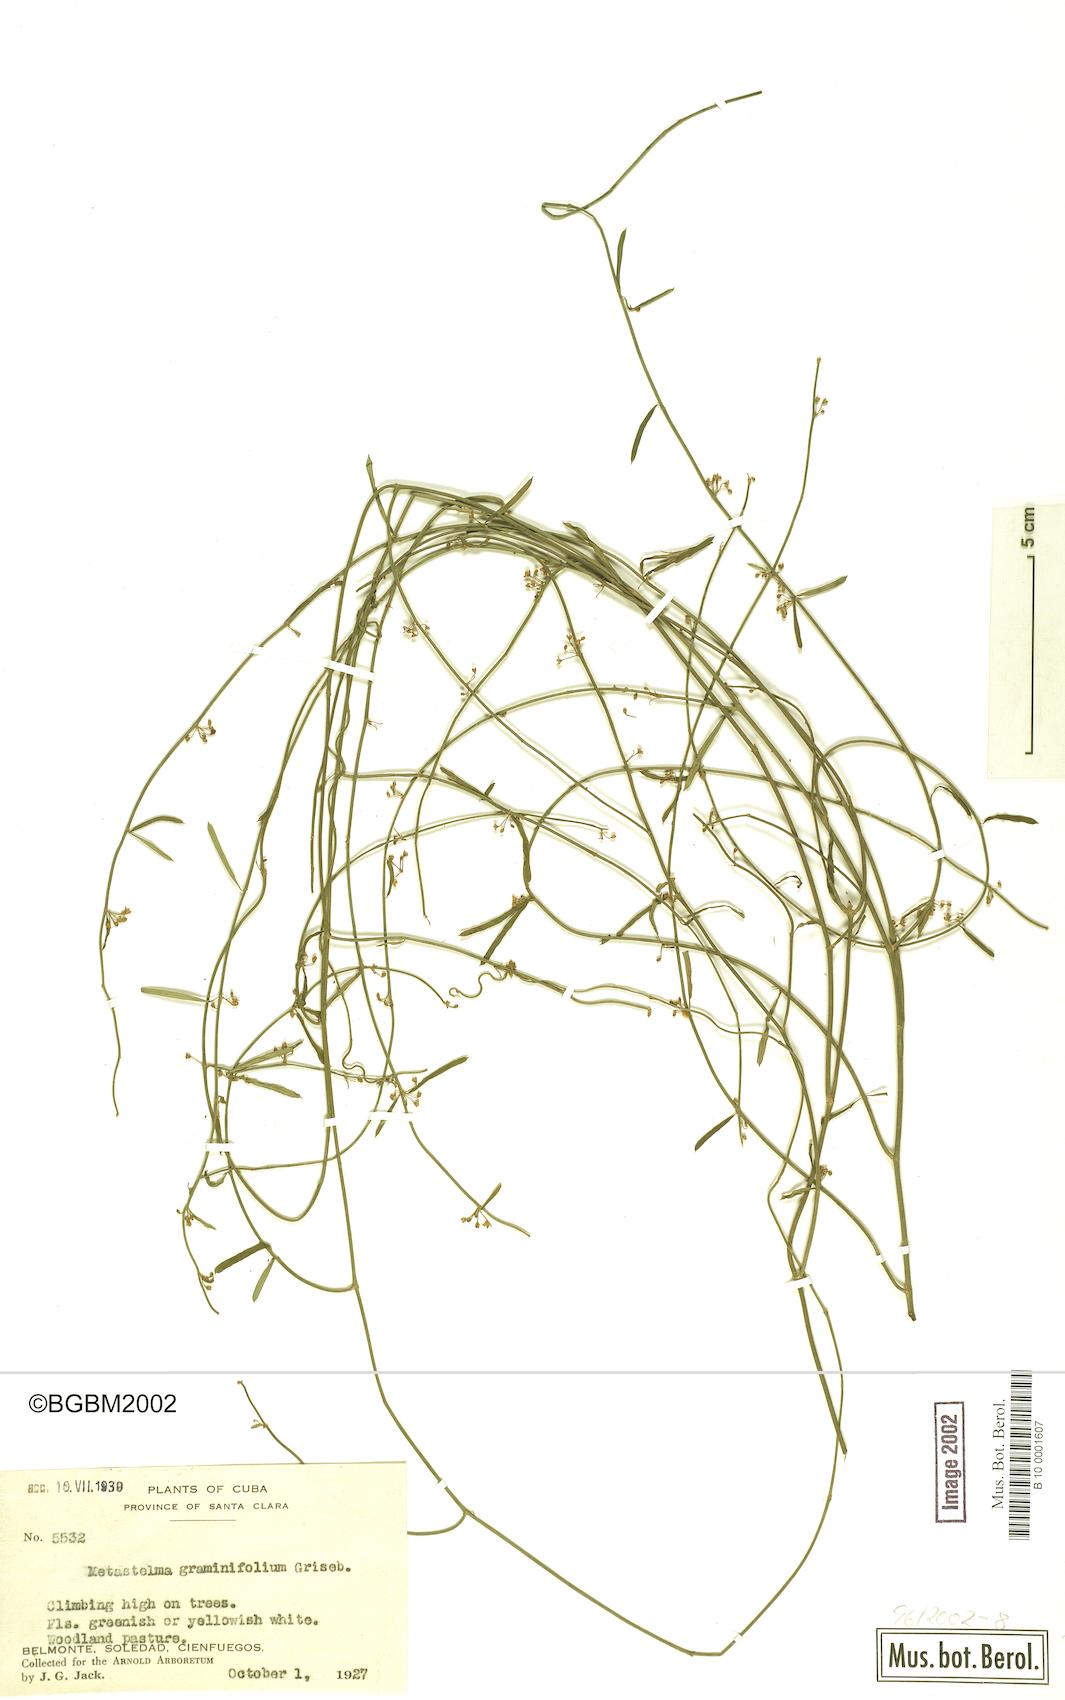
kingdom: Plantae
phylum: Tracheophyta
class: Magnoliopsida
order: Gentianales
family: Apocynaceae
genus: Metastelma
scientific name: Metastelma
